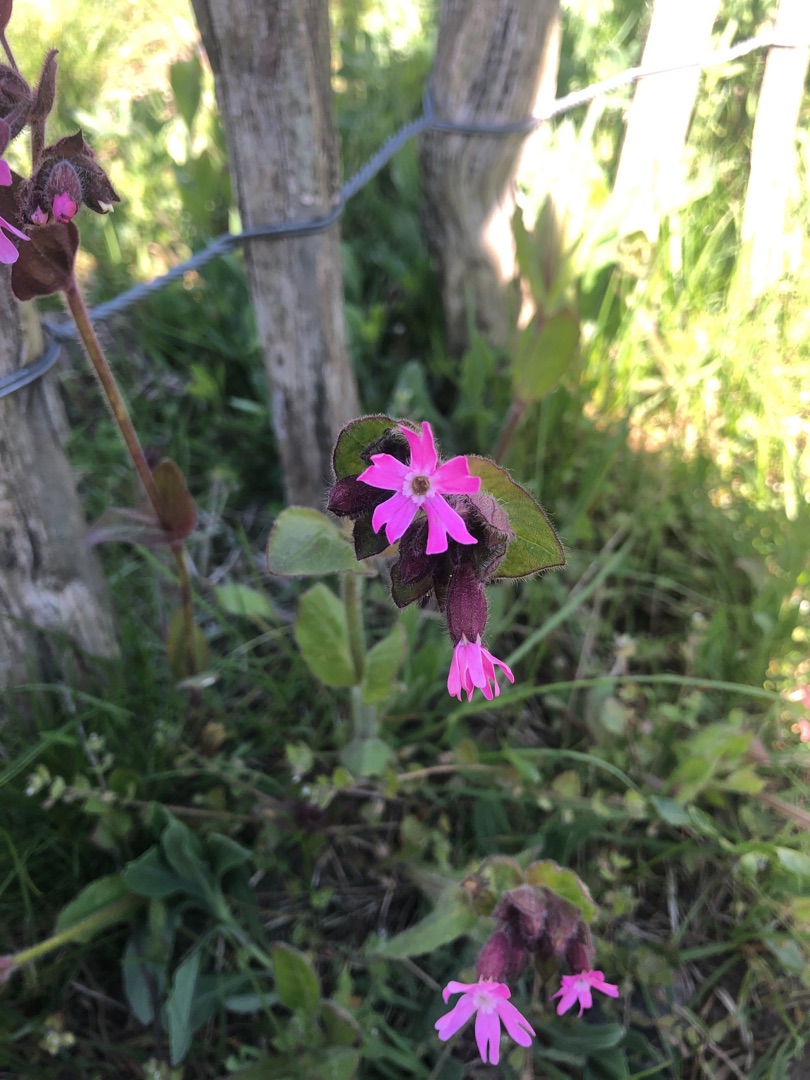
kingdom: Plantae
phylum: Tracheophyta
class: Magnoliopsida
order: Caryophyllales
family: Caryophyllaceae
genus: Silene
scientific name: Silene dioica
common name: Dagpragtstjerne
